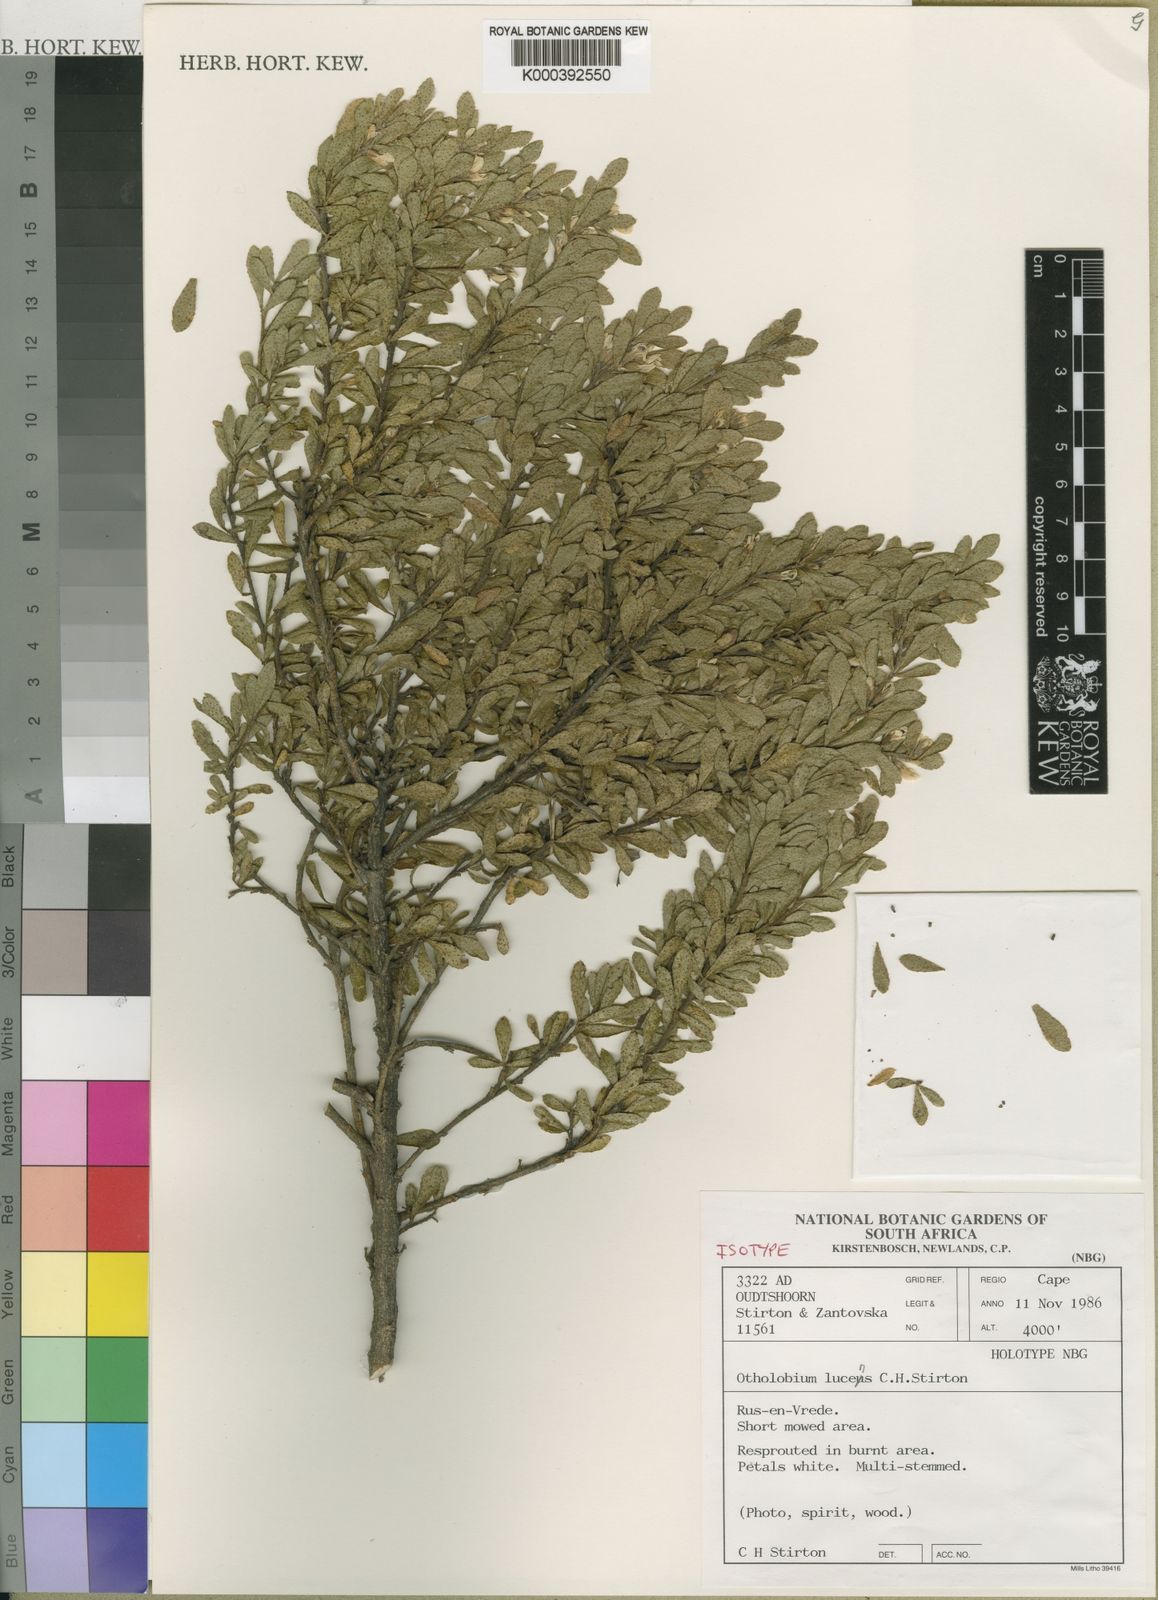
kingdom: Plantae
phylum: Tracheophyta
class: Magnoliopsida
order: Fabales
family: Fabaceae
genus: Psoralea
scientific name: Psoralea lucens
